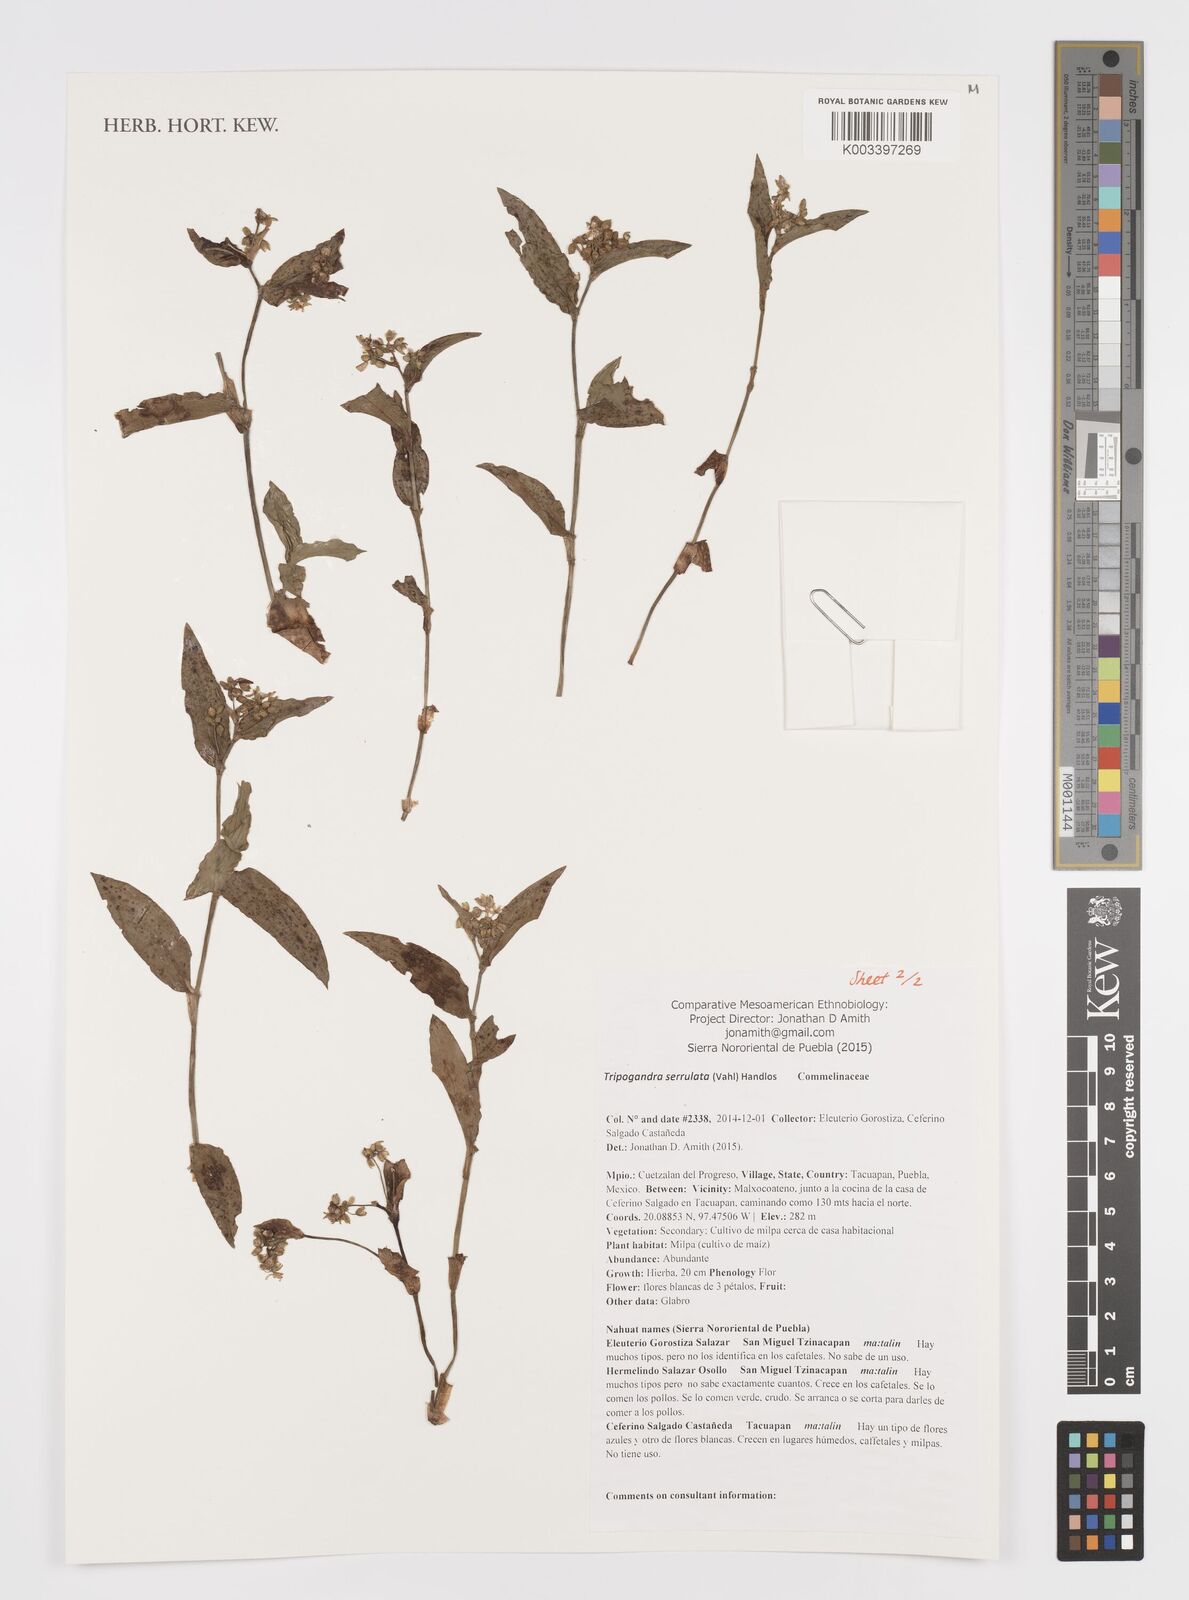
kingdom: Plantae
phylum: Tracheophyta
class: Liliopsida
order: Commelinales
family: Commelinaceae
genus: Callisia
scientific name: Callisia serrulata
